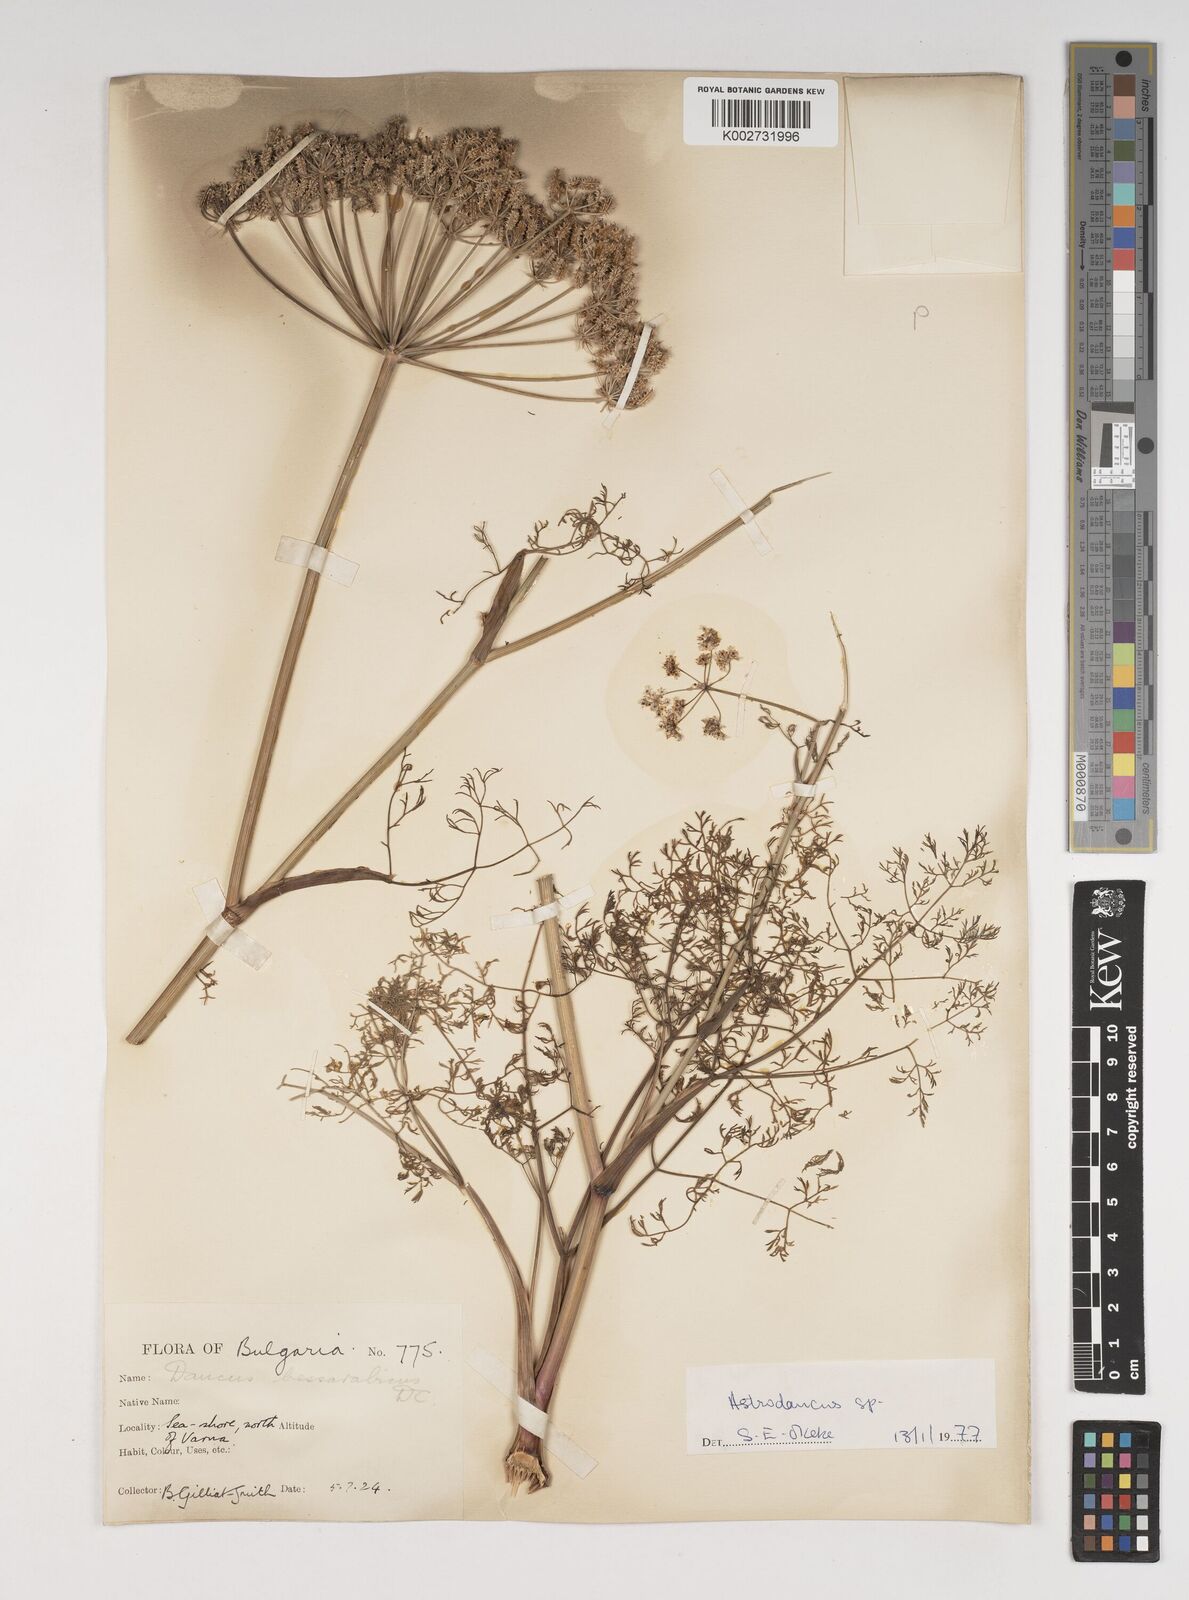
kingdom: Plantae
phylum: Tracheophyta
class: Magnoliopsida
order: Apiales
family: Apiaceae
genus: Astrodaucus
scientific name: Astrodaucus littoralis
